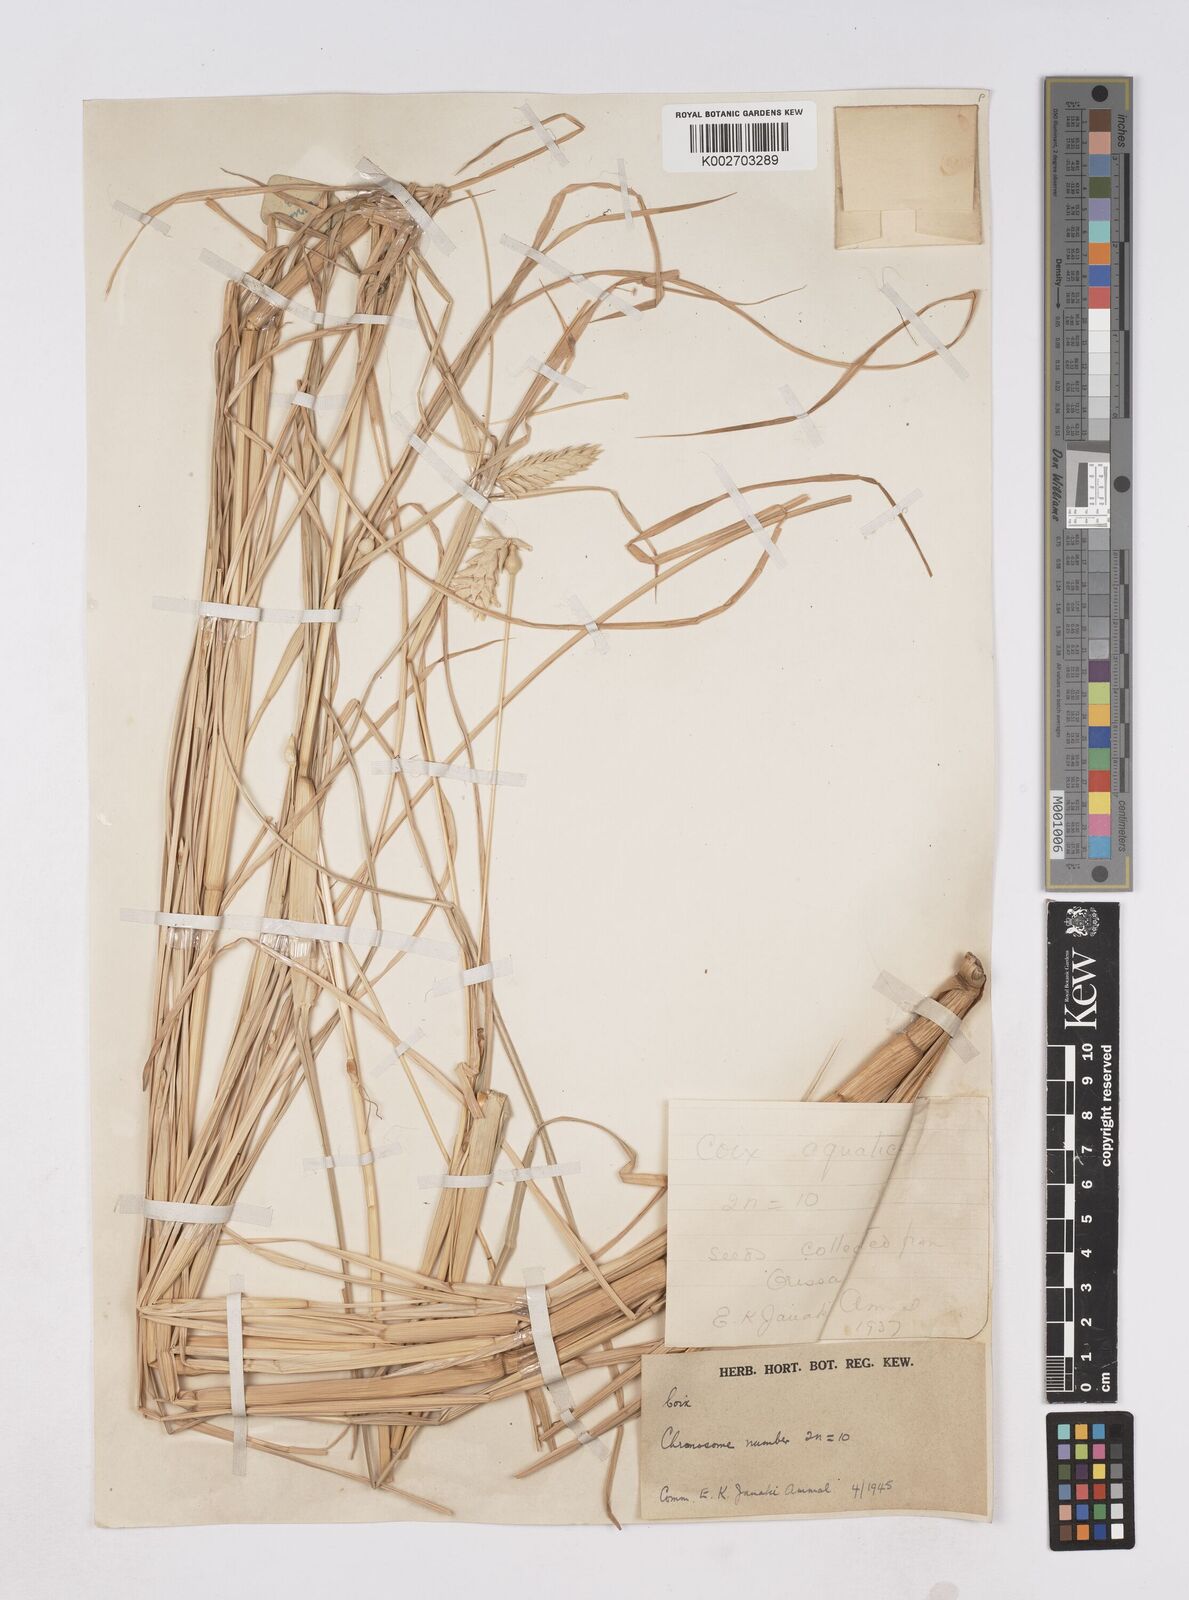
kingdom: Plantae
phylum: Tracheophyta
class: Liliopsida
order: Poales
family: Poaceae
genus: Coix
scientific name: Coix aquatica
